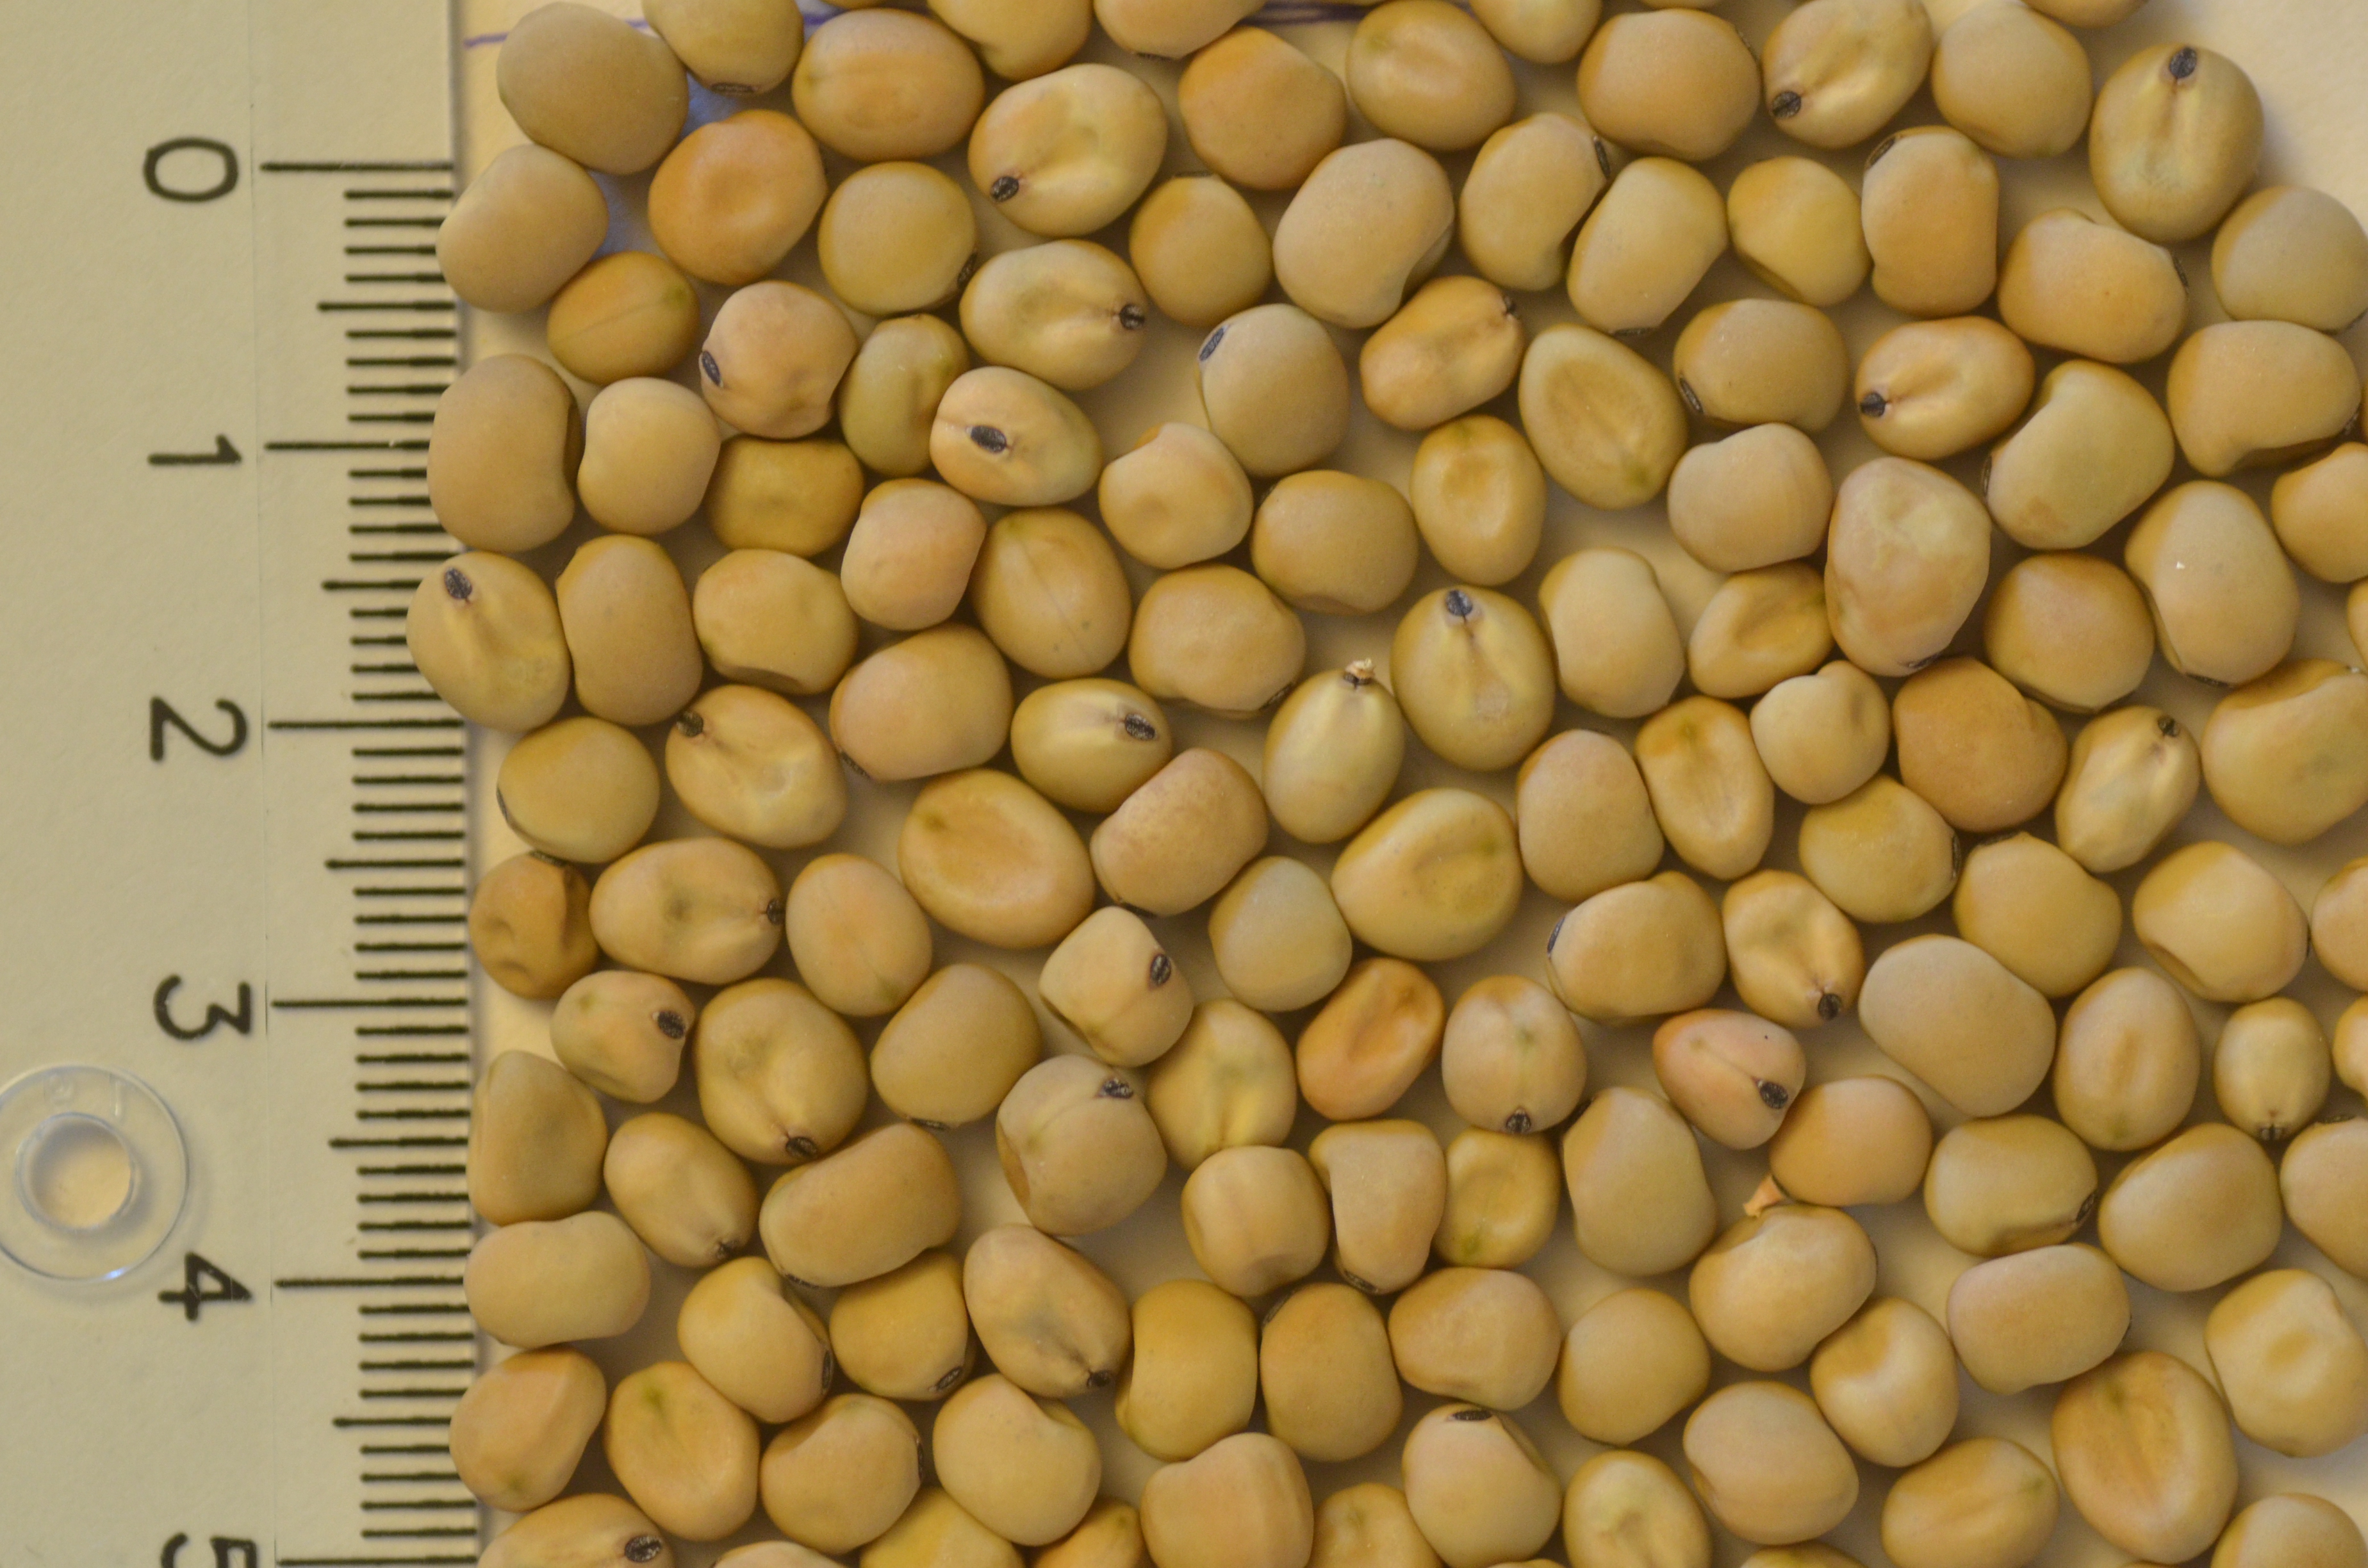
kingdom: Plantae
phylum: Tracheophyta
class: Magnoliopsida
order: Fabales
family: Fabaceae
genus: Lathyrus
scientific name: Lathyrus oleraceus
